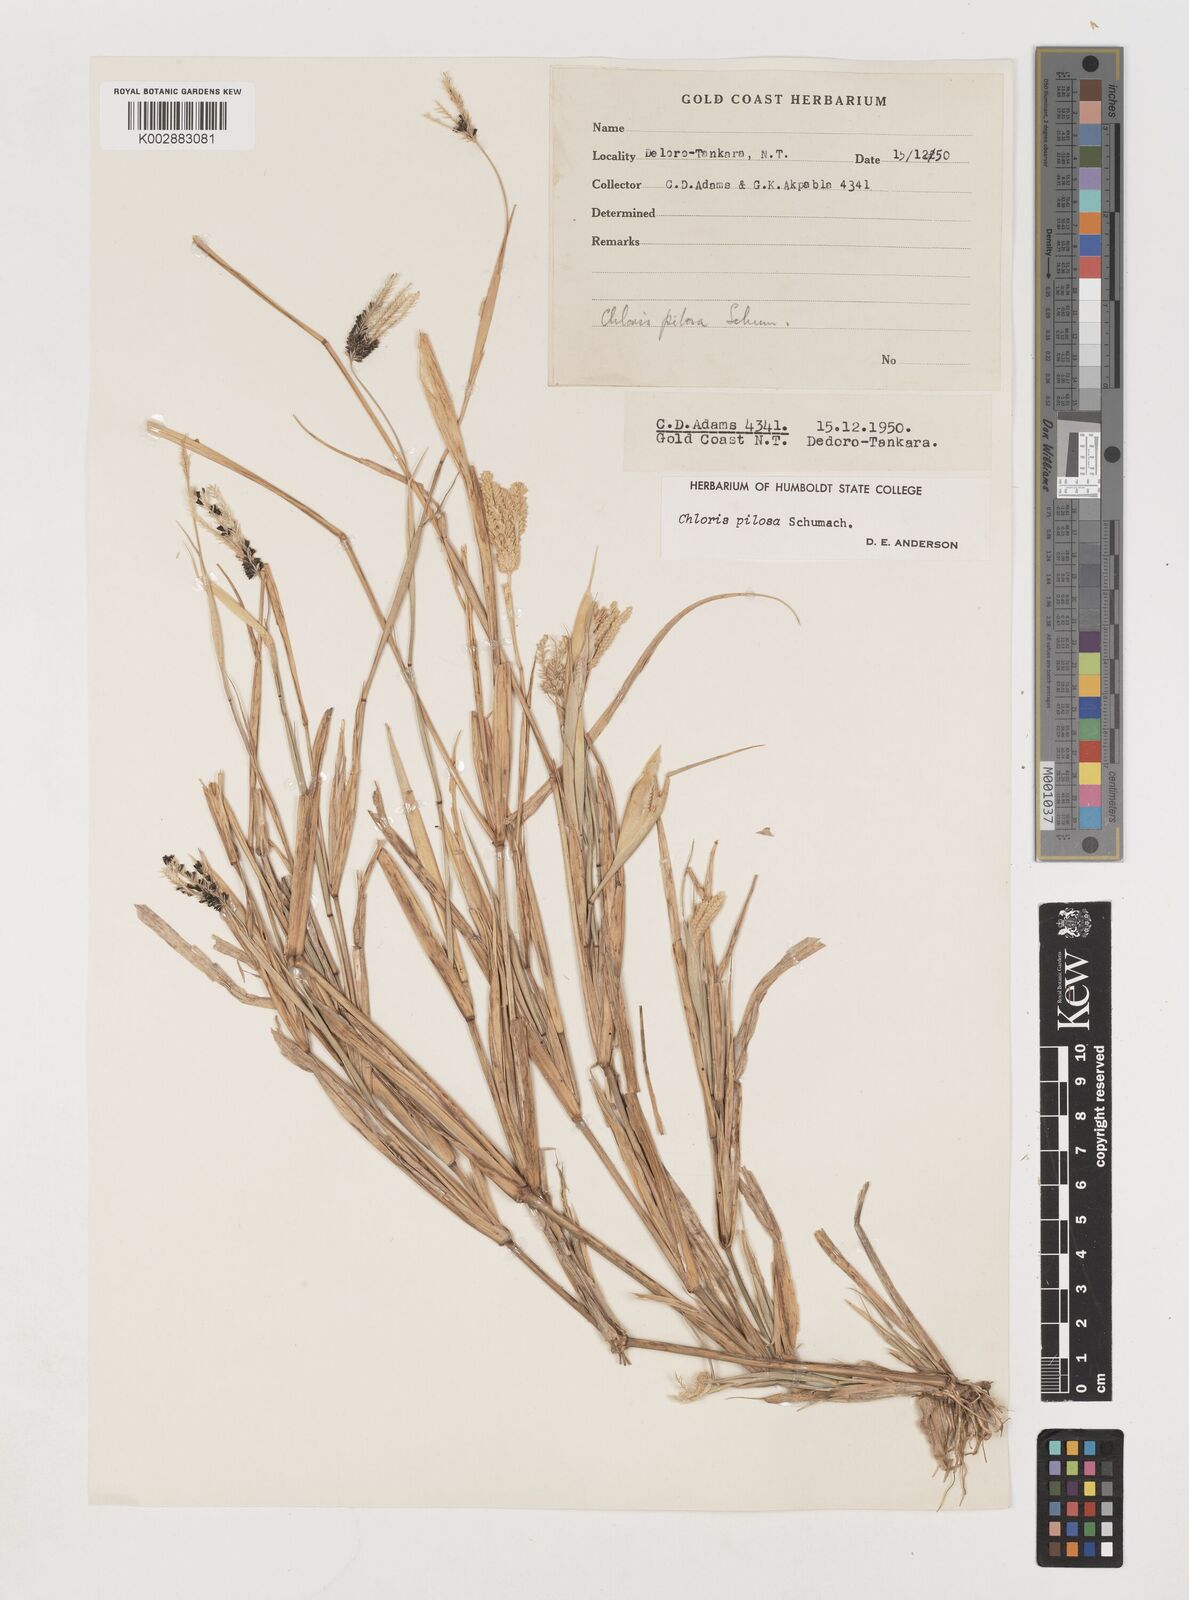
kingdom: Plantae
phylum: Tracheophyta
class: Liliopsida
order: Poales
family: Poaceae
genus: Chloris
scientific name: Chloris pilosa
